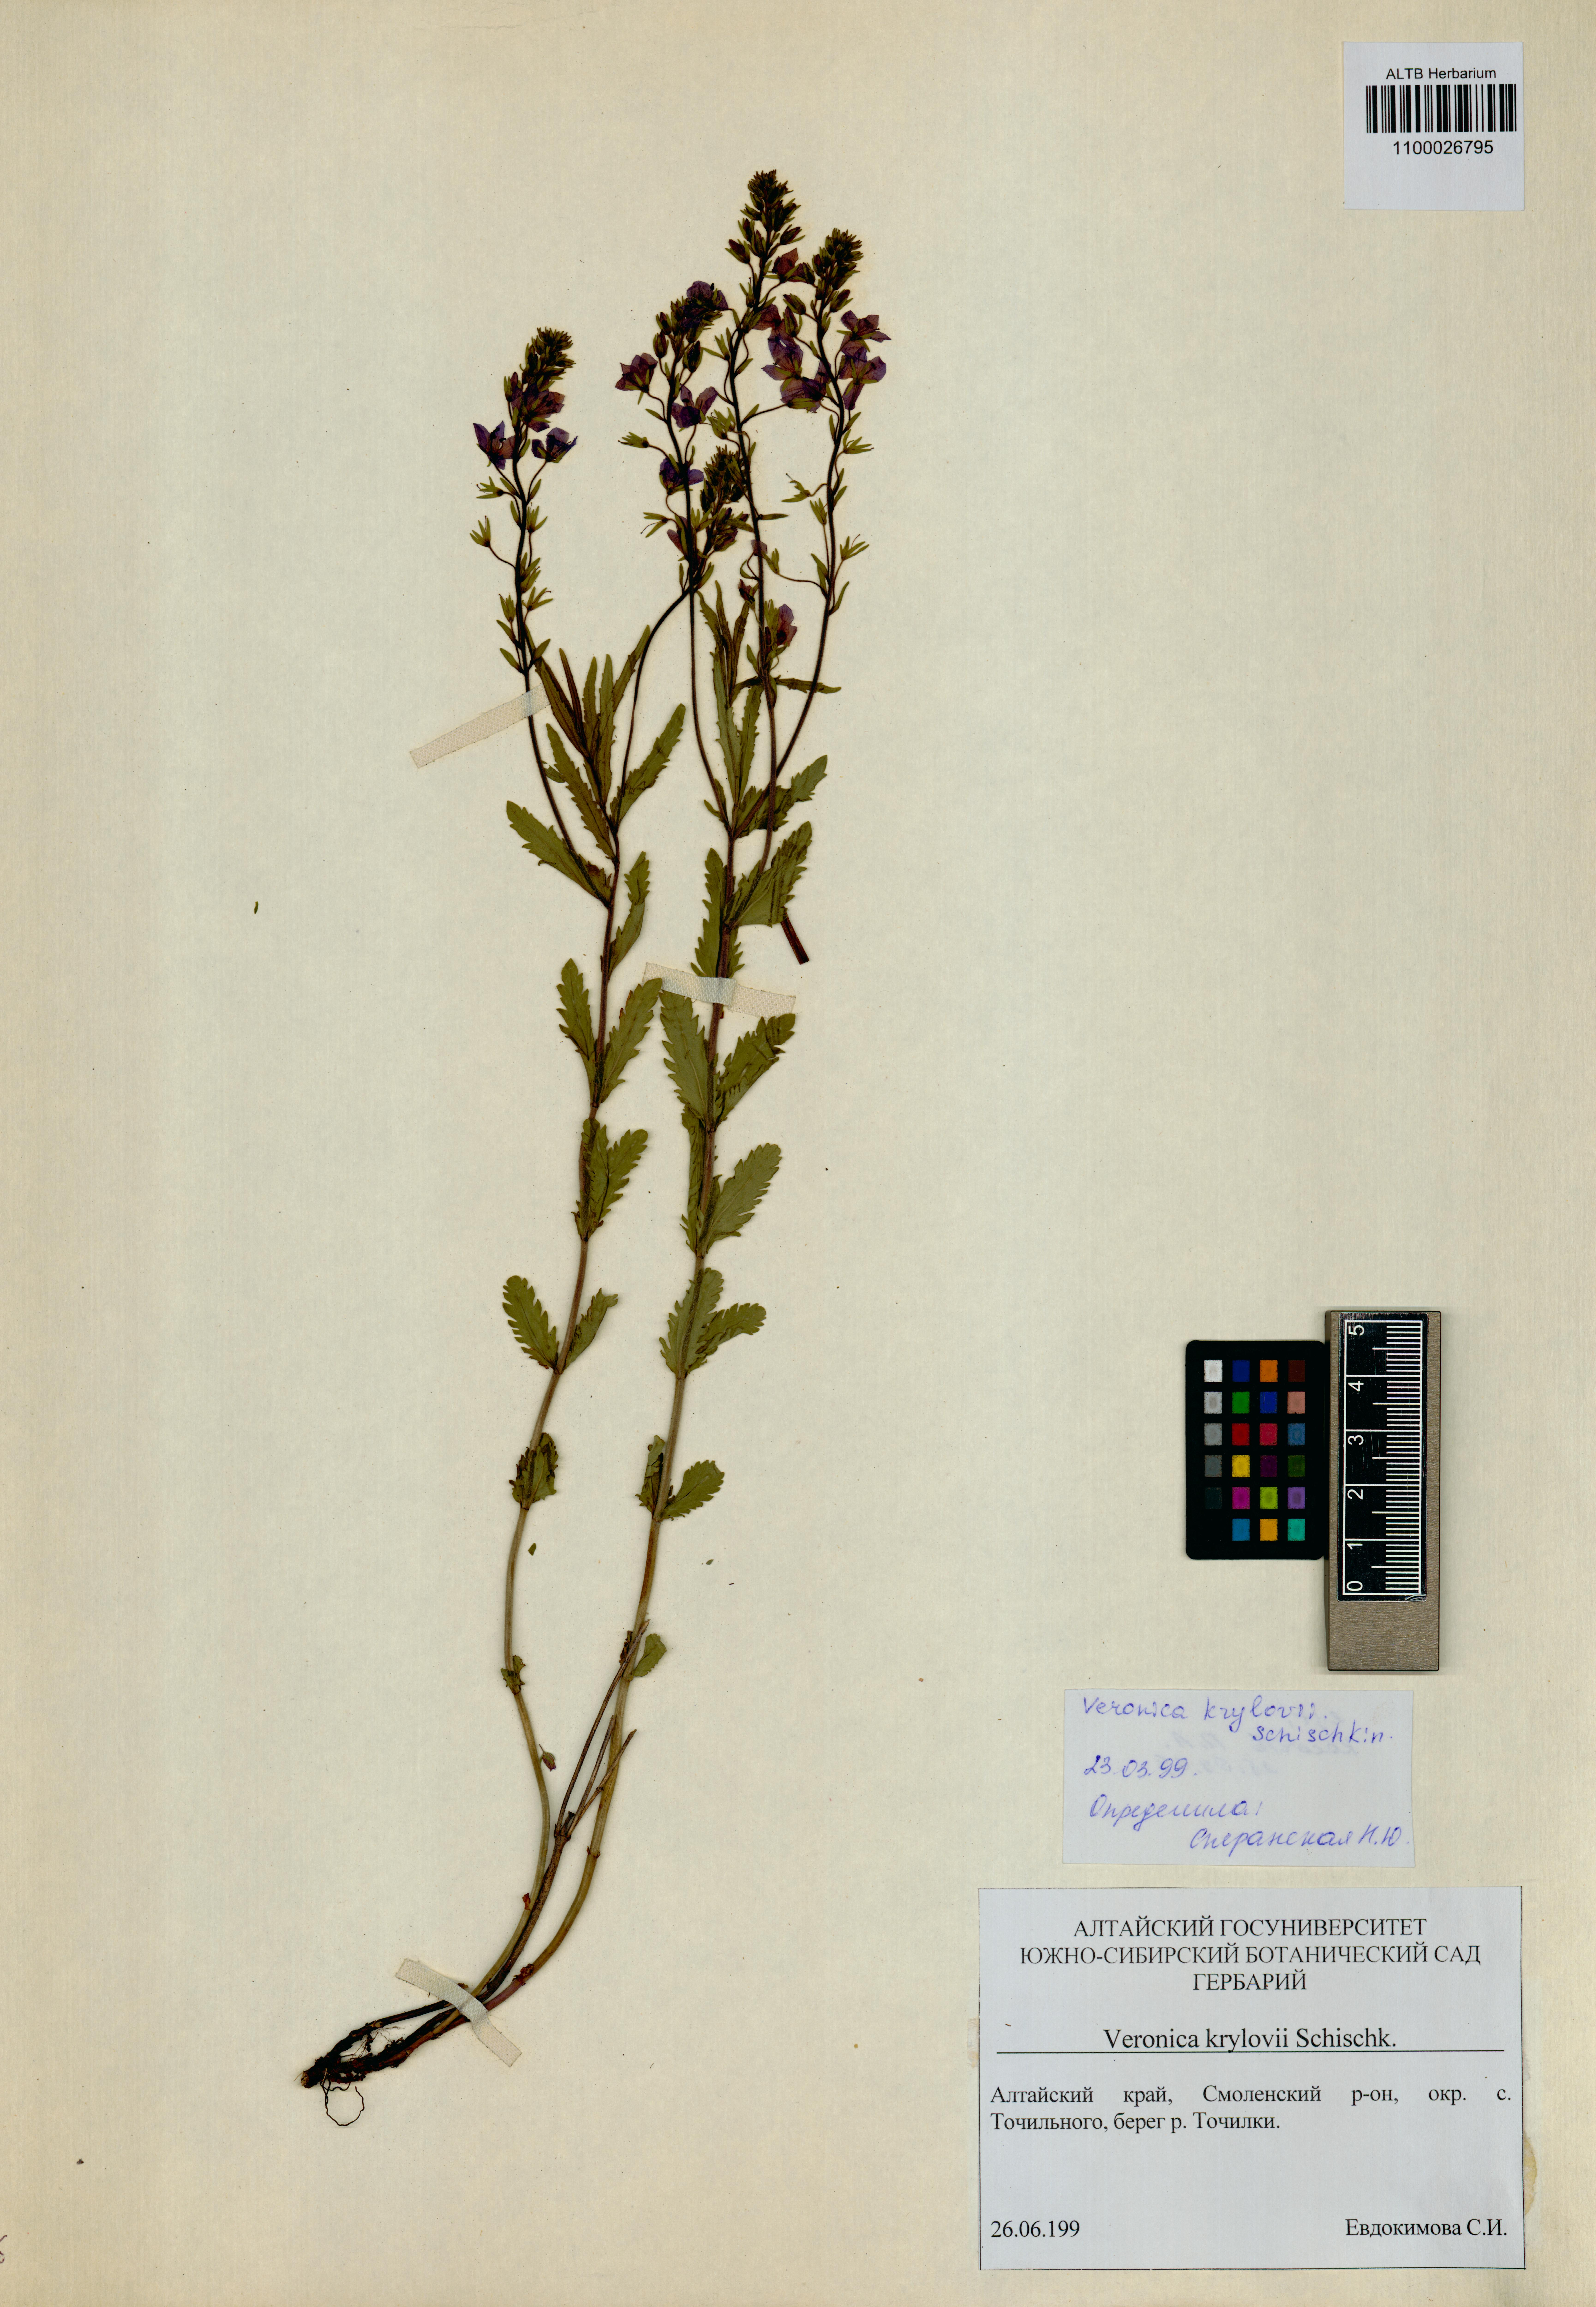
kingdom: Plantae
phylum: Tracheophyta
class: Magnoliopsida
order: Lamiales
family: Plantaginaceae
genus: Veronica
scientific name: Veronica krylovii
